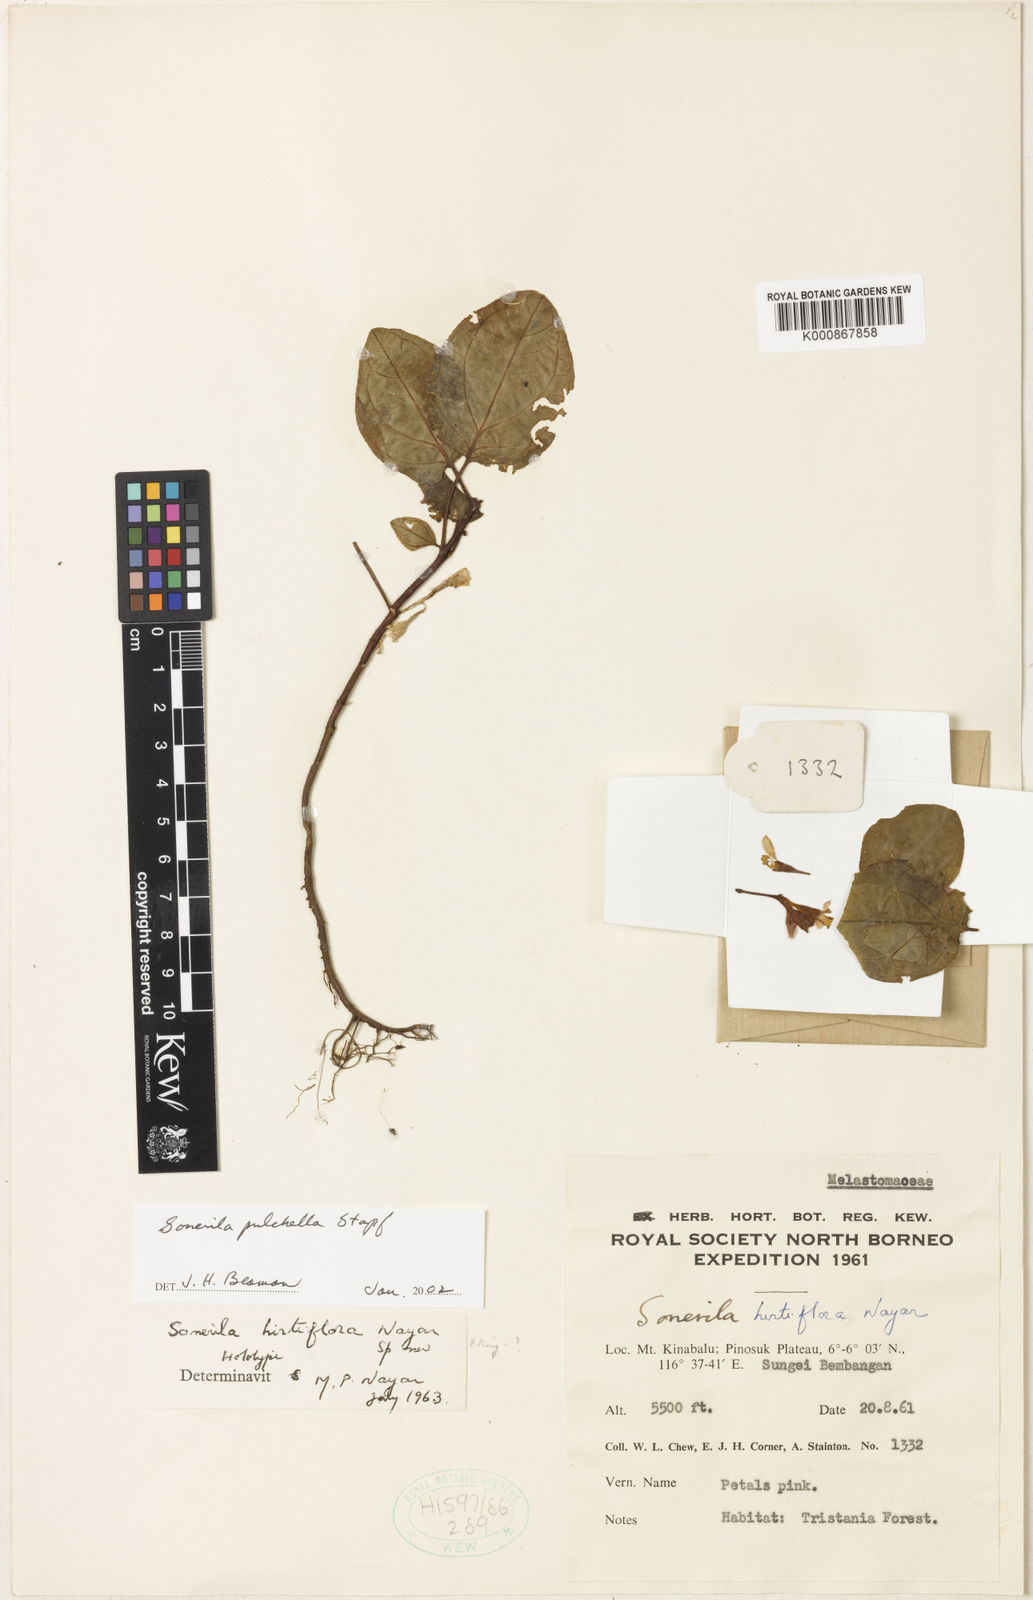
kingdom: Plantae
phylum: Tracheophyta
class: Magnoliopsida
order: Myrtales
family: Melastomataceae
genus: Sonerila
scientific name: Sonerila pulchella
